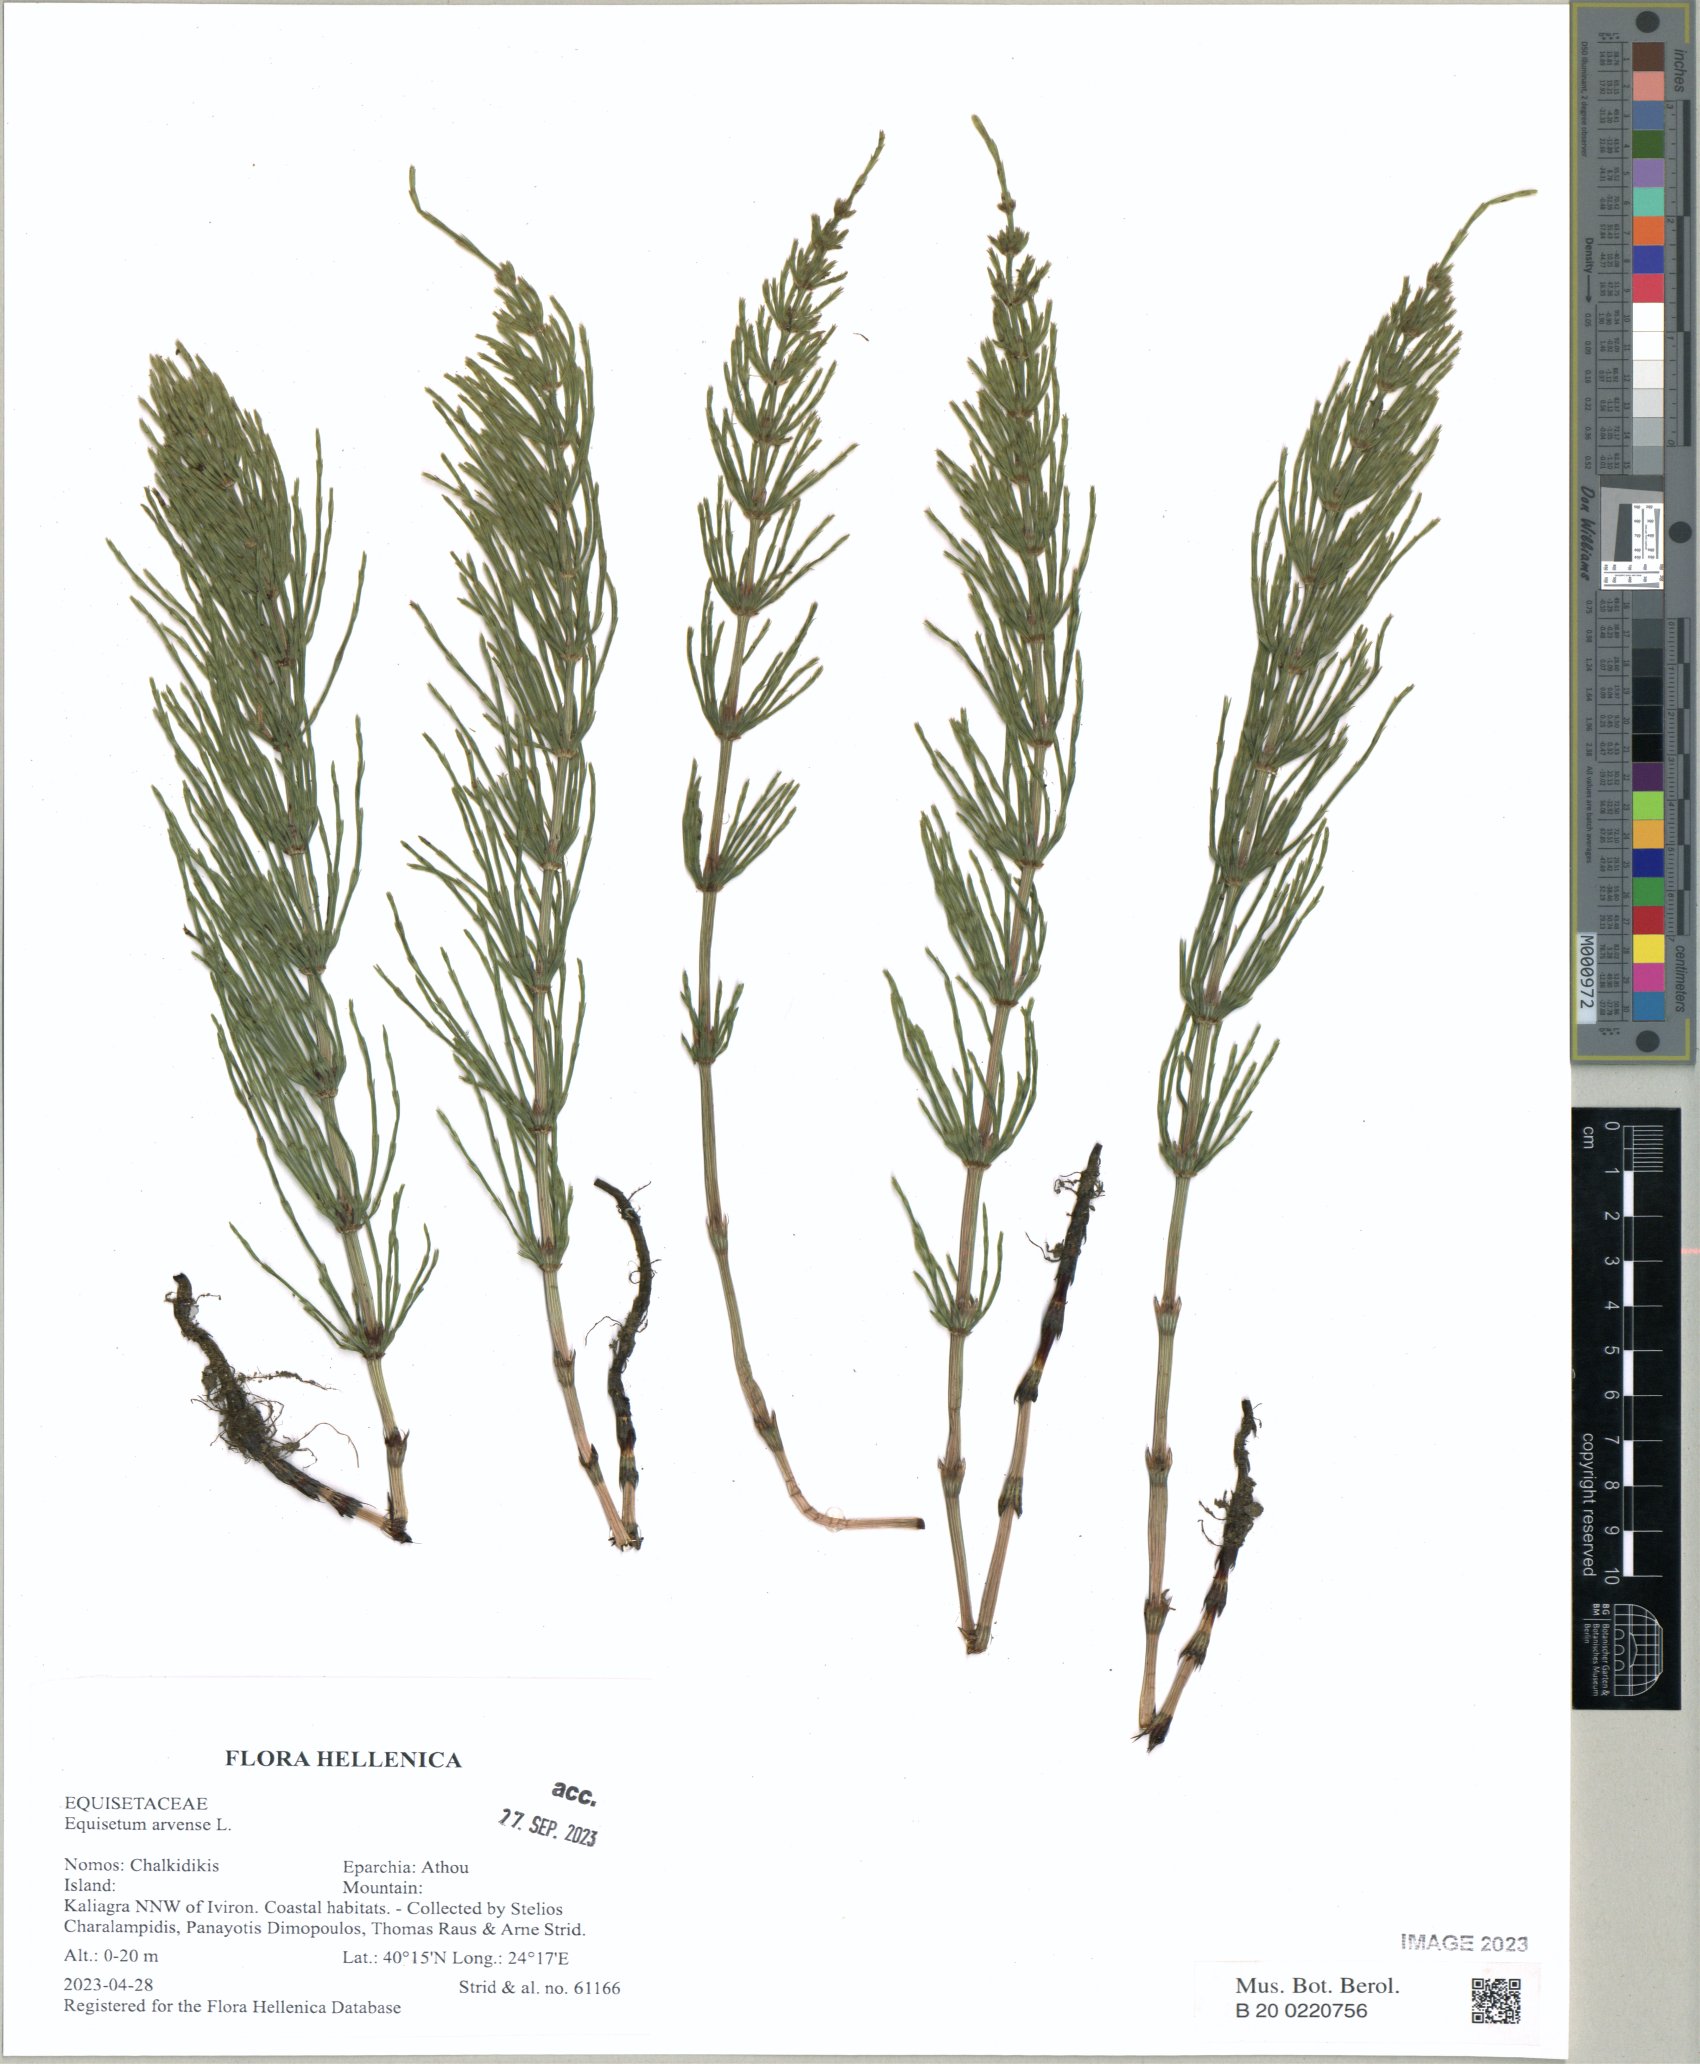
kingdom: Plantae
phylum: Tracheophyta
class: Polypodiopsida
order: Equisetales
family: Equisetaceae
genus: Equisetum
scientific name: Equisetum arvense
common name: Field horsetail
